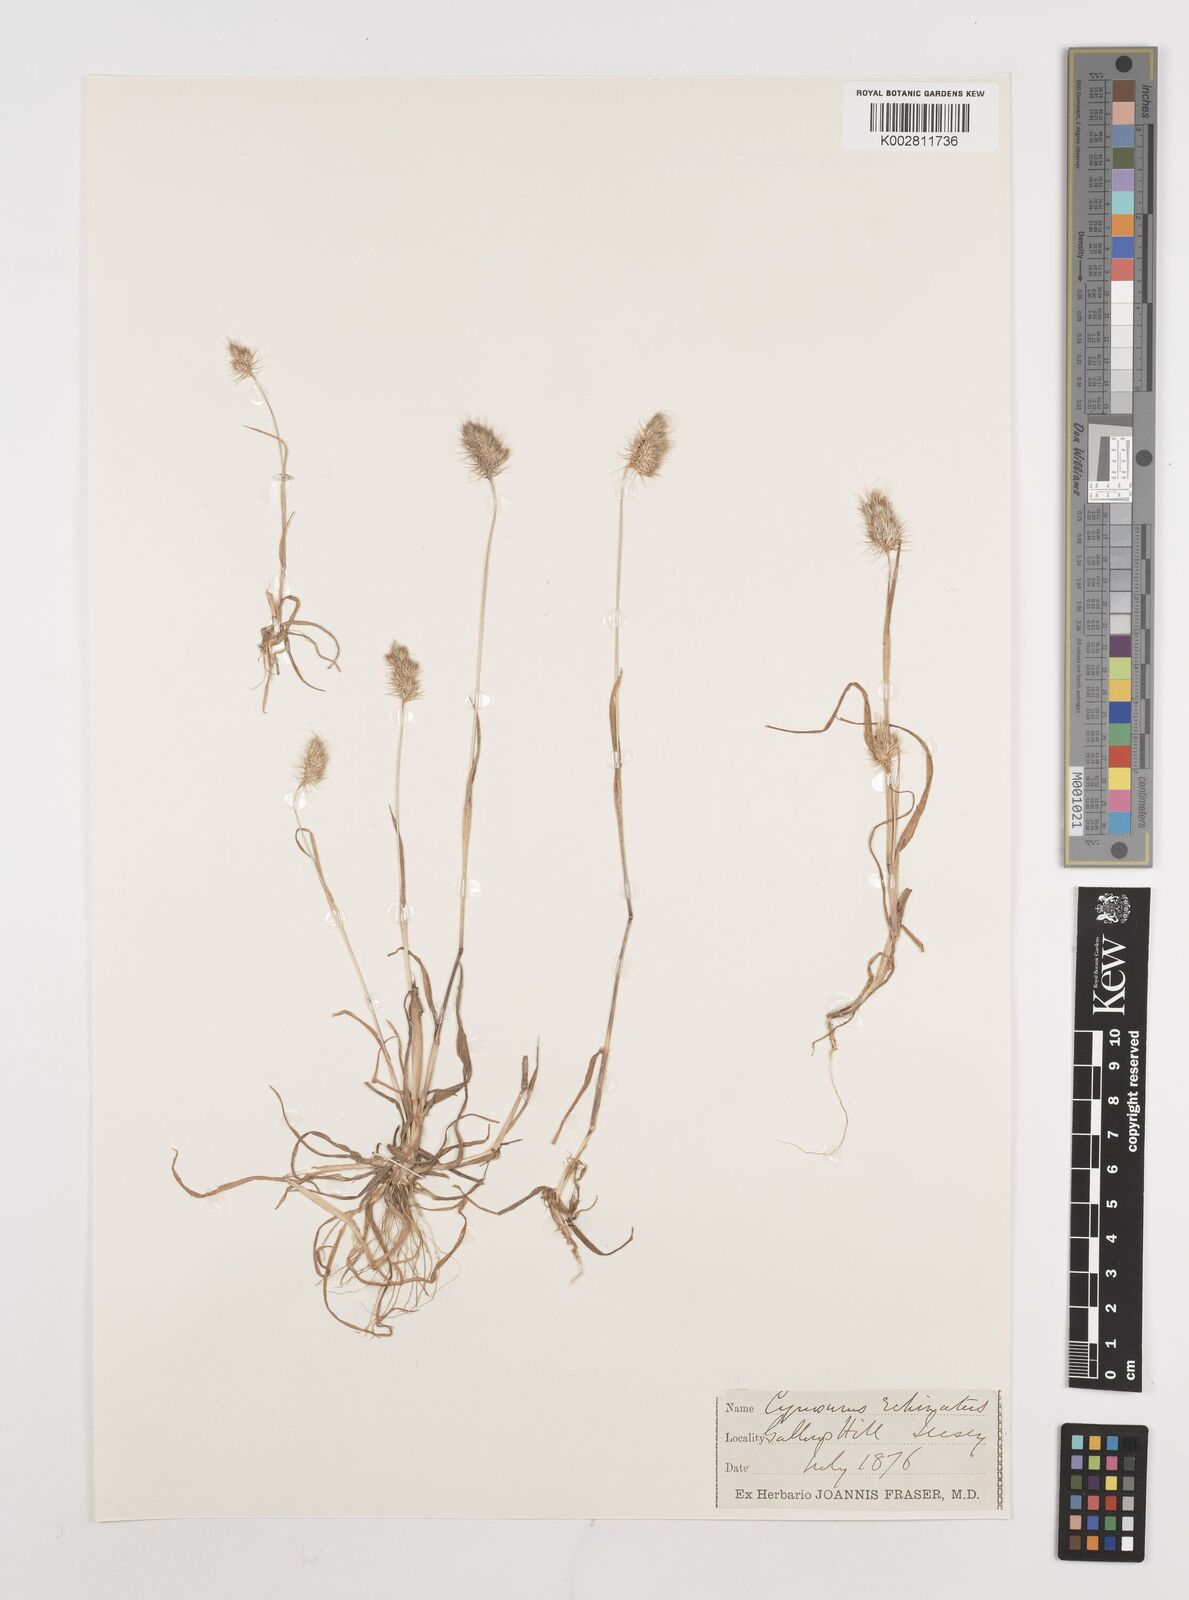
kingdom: Plantae
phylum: Tracheophyta
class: Liliopsida
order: Poales
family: Poaceae
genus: Cynosurus
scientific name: Cynosurus echinatus
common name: Rough dog's-tail
